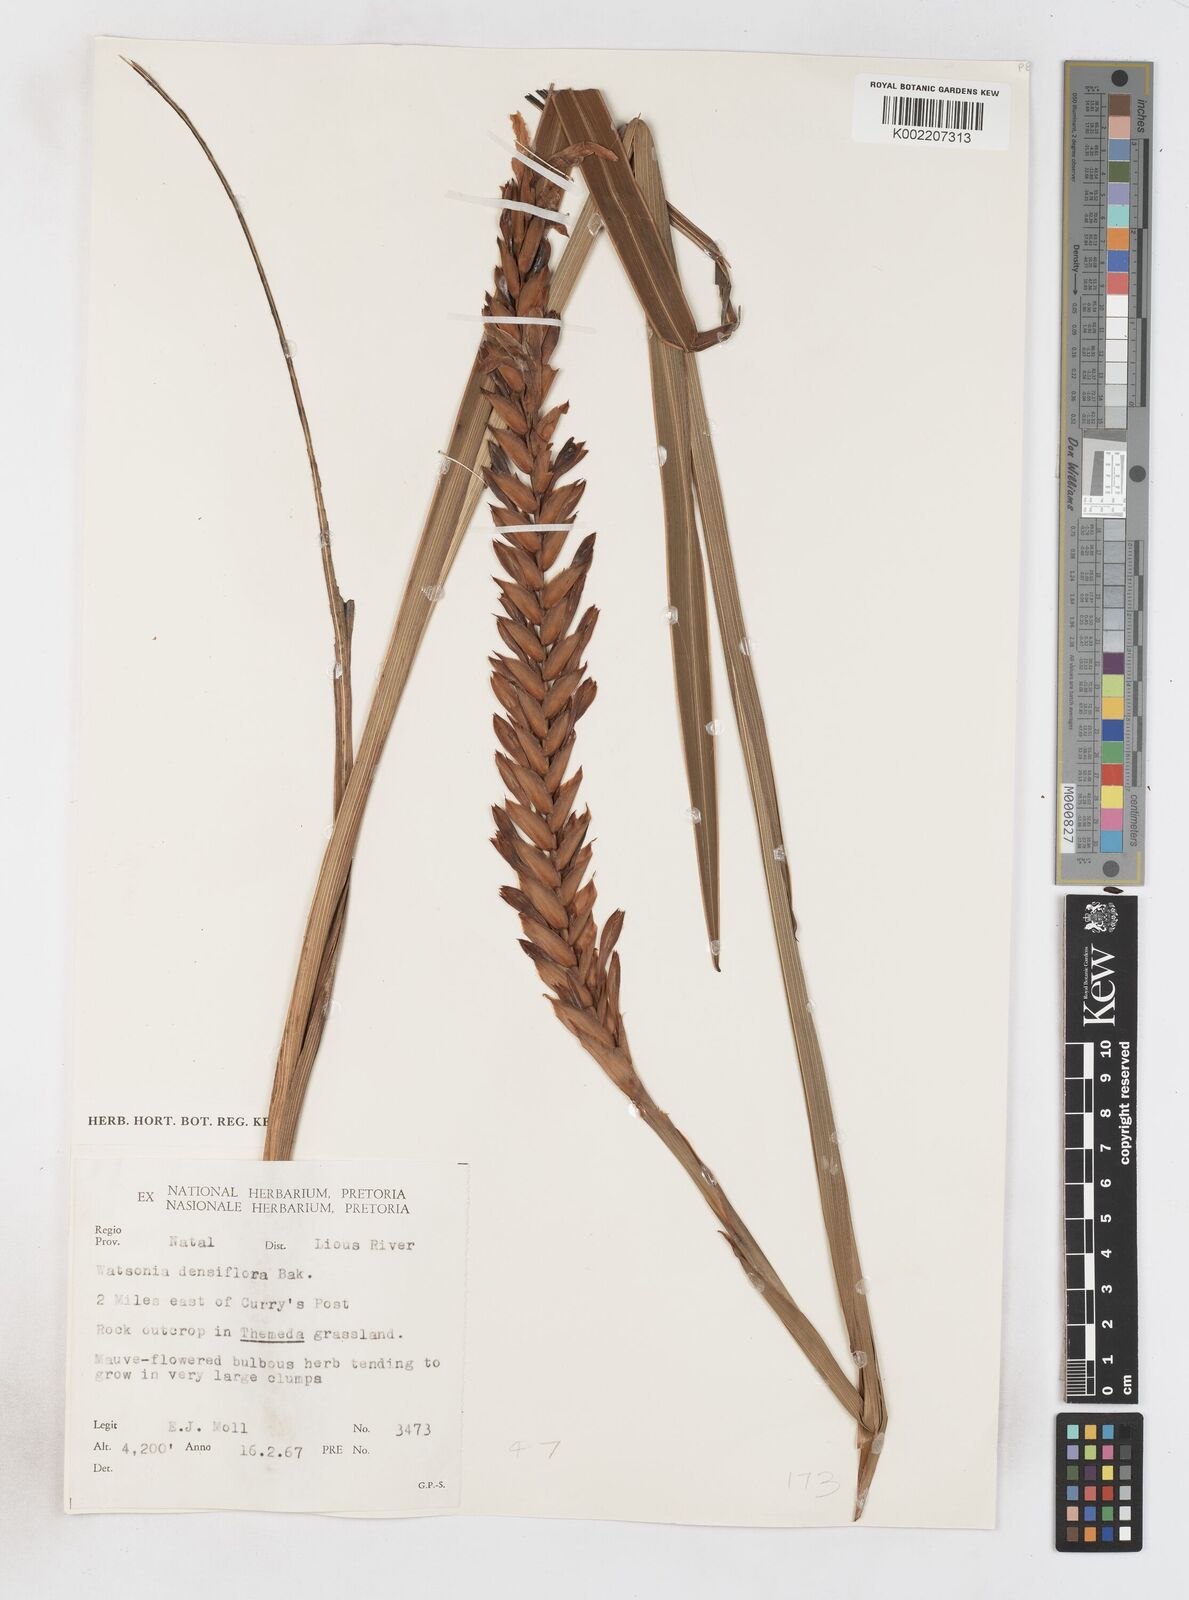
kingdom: Plantae
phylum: Tracheophyta
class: Liliopsida
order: Asparagales
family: Iridaceae
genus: Watsonia
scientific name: Watsonia densiflora
